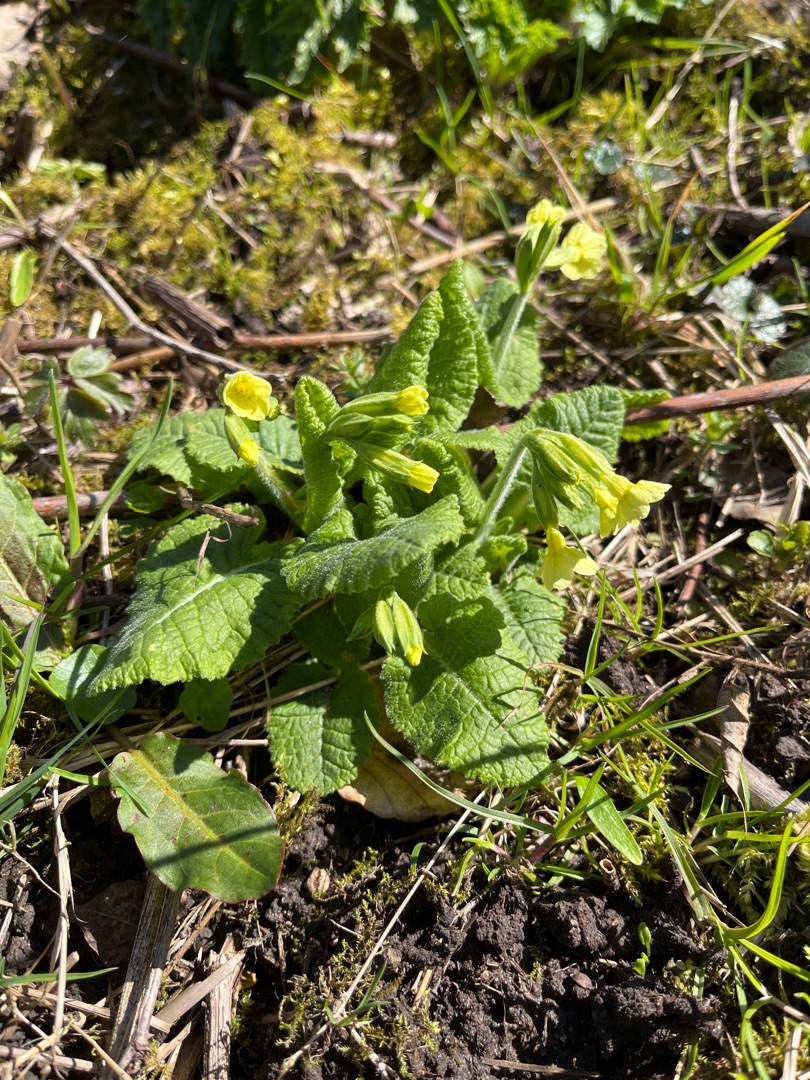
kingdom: Plantae
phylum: Tracheophyta
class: Magnoliopsida
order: Ericales
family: Primulaceae
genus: Primula
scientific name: Primula elatior
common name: Fladkravet kodriver
